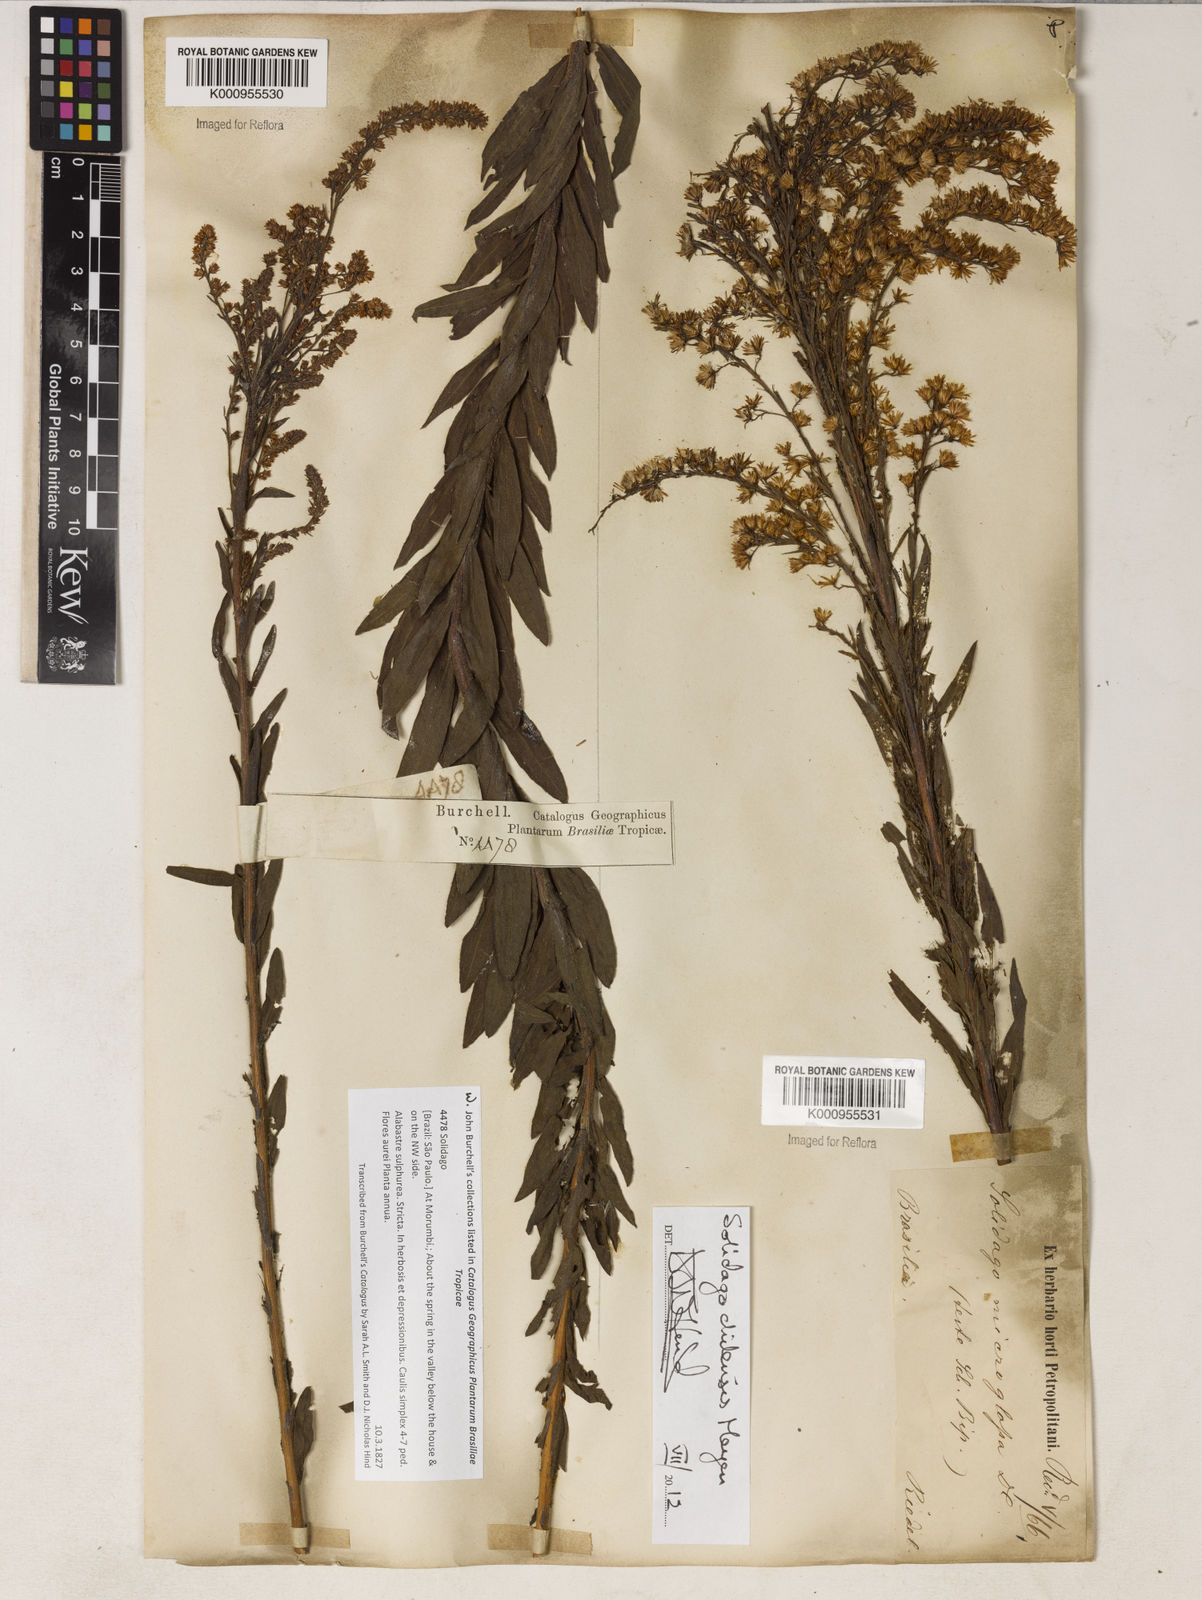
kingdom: Plantae
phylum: Tracheophyta
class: Magnoliopsida
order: Asterales
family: Asteraceae
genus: Solidago
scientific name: Solidago chilensis
